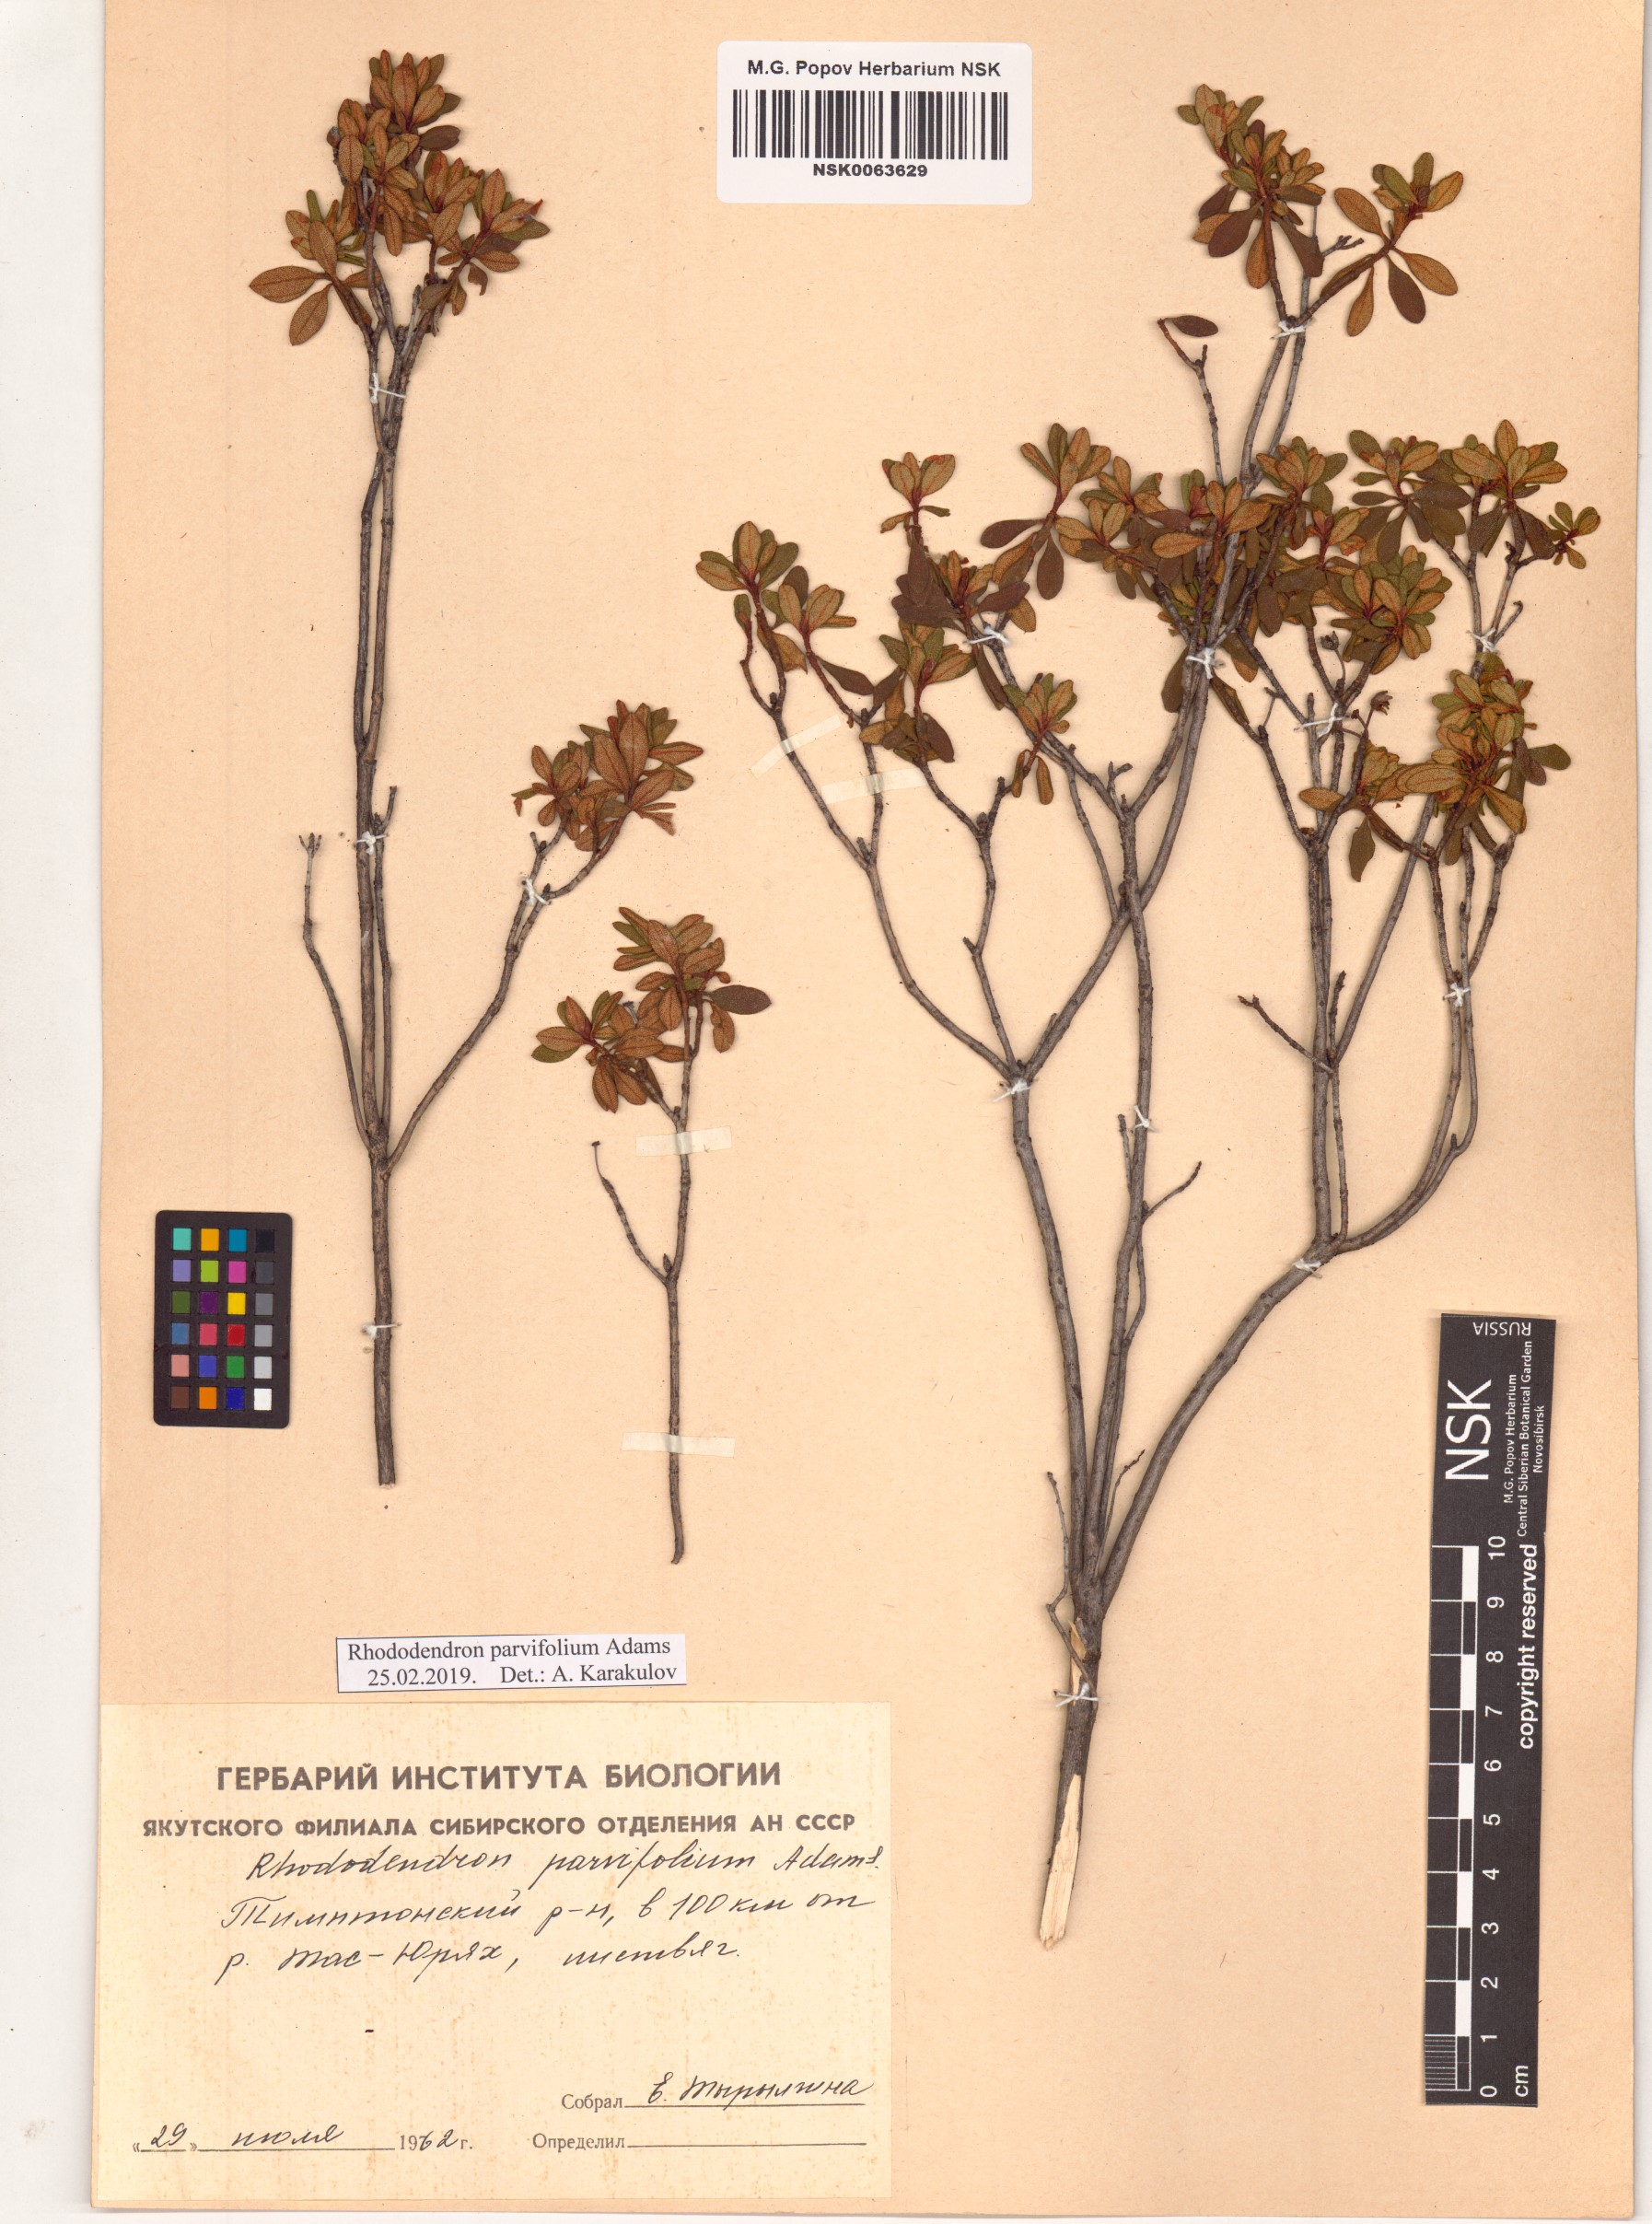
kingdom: Plantae
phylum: Tracheophyta
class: Magnoliopsida
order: Ericales
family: Ericaceae
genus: Rhododendron
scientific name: Rhododendron parvifolium
